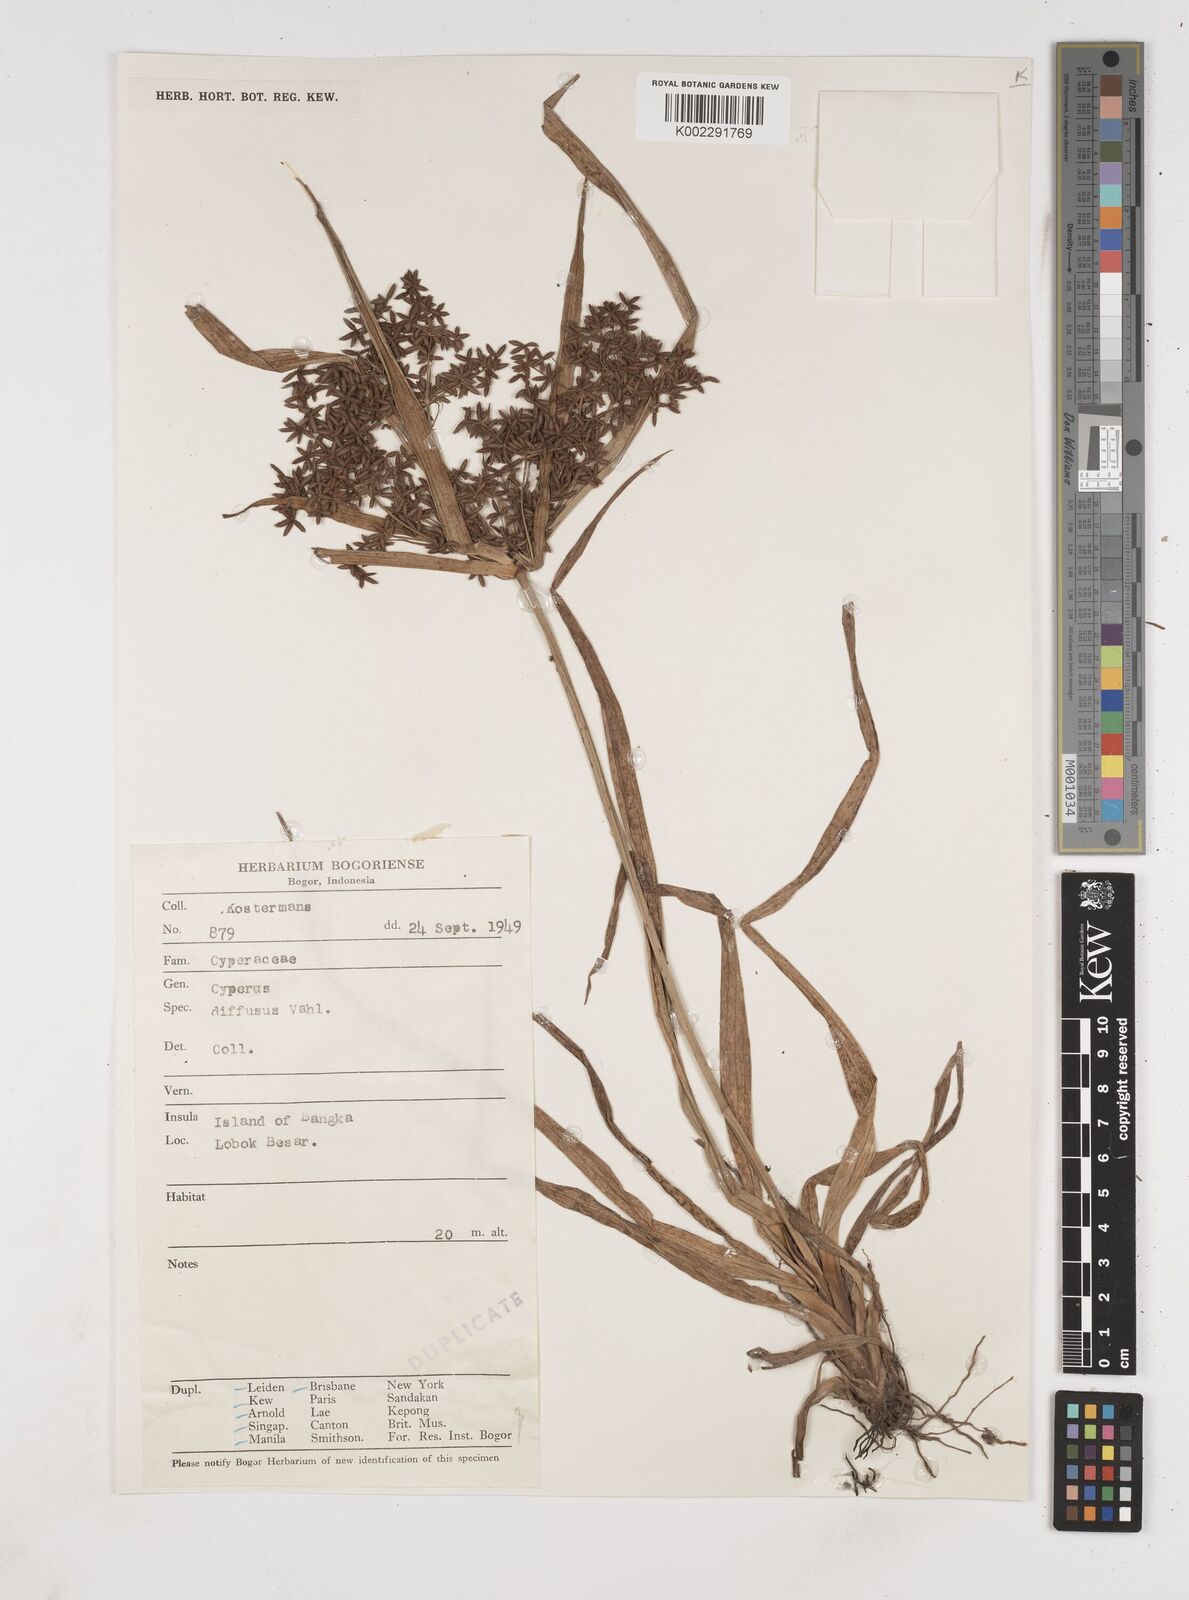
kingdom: Plantae
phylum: Tracheophyta
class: Liliopsida
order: Poales
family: Cyperaceae
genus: Cyperus
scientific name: Cyperus diffusus
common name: Dwarf umbrella grass
